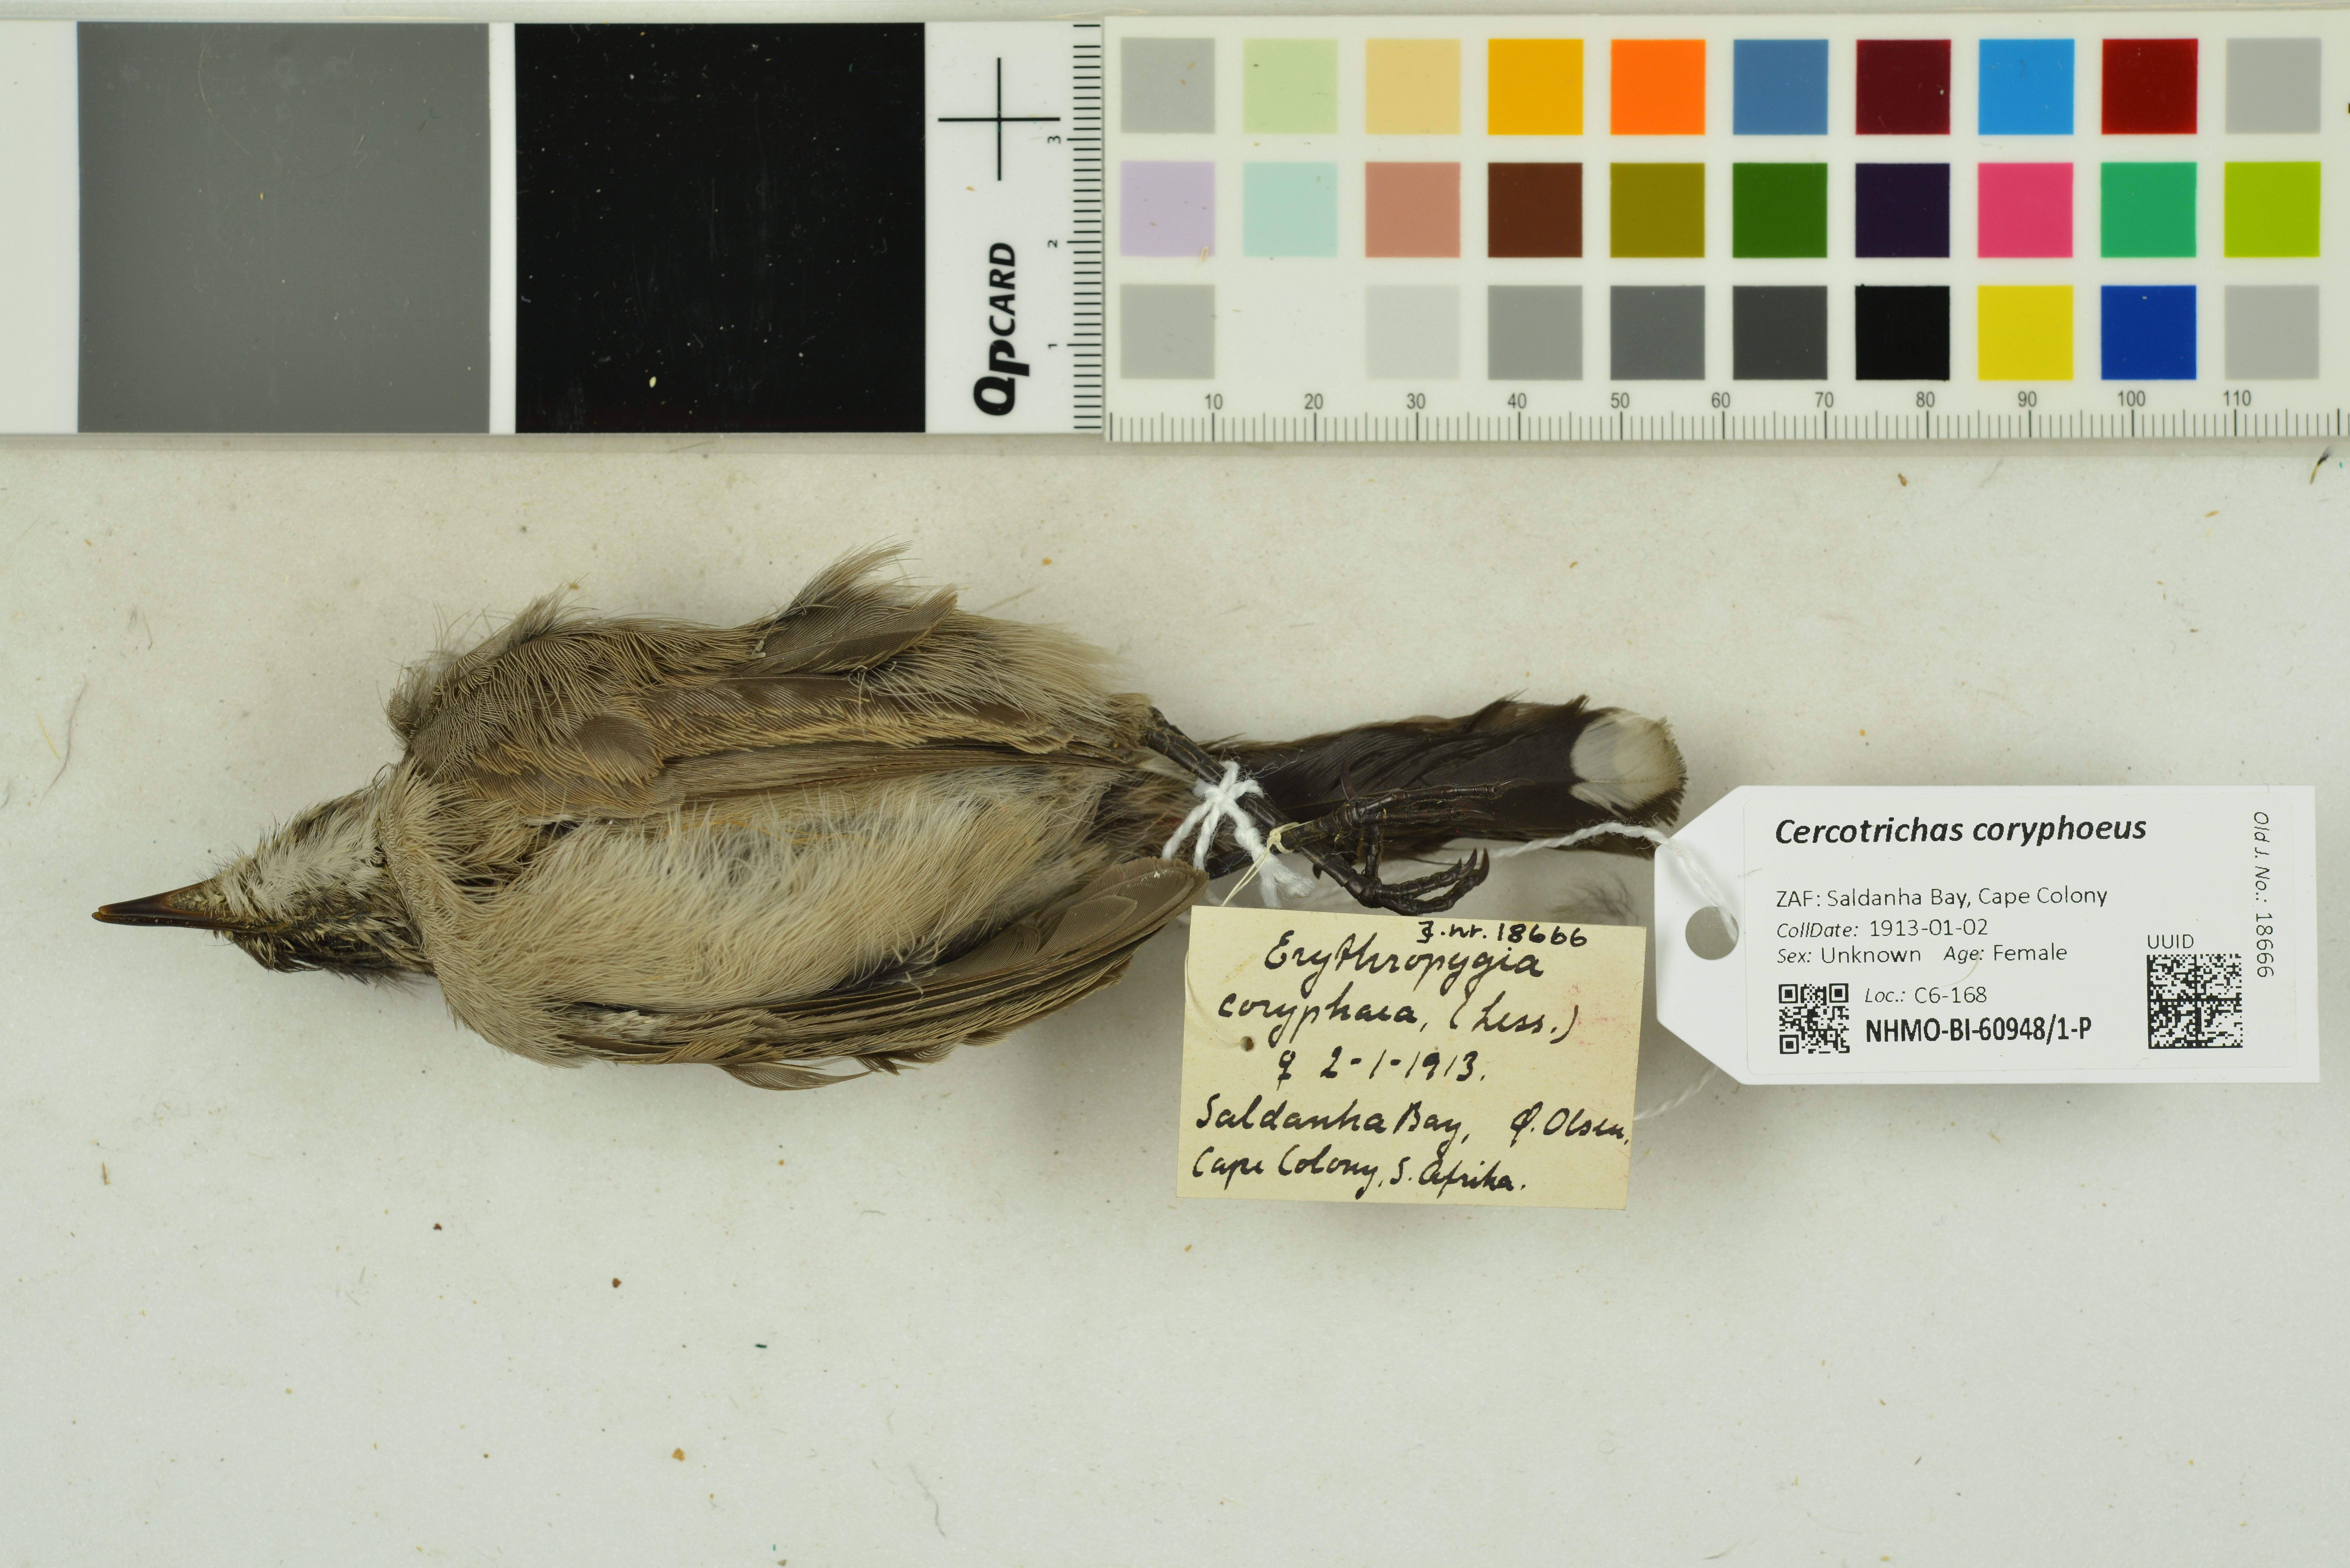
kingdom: Animalia
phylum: Chordata
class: Aves
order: Passeriformes
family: Muscicapidae
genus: Erythropygia
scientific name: Erythropygia coryphoeus
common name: Karoo scrub robin
